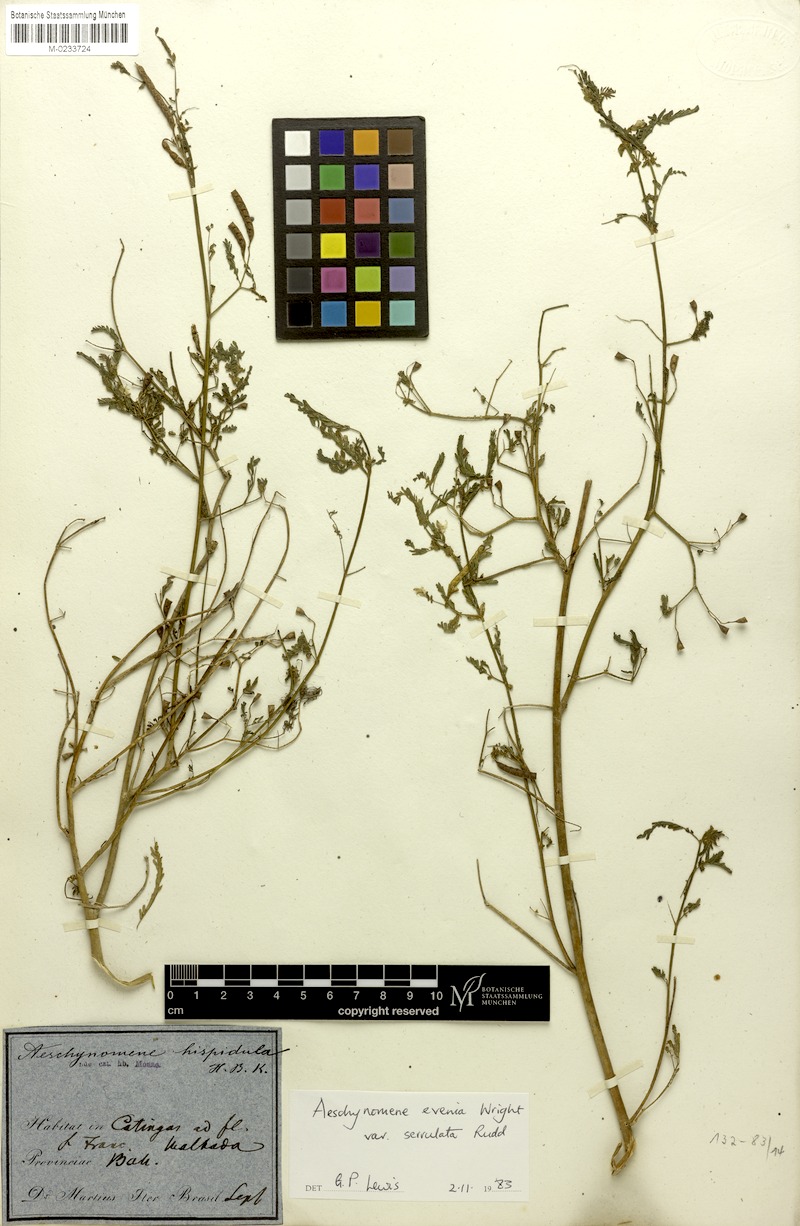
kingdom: Plantae
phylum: Tracheophyta
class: Magnoliopsida
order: Fabales
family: Fabaceae
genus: Aeschynomene
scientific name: Aeschynomene evenia
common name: Shrubby jointvetch
